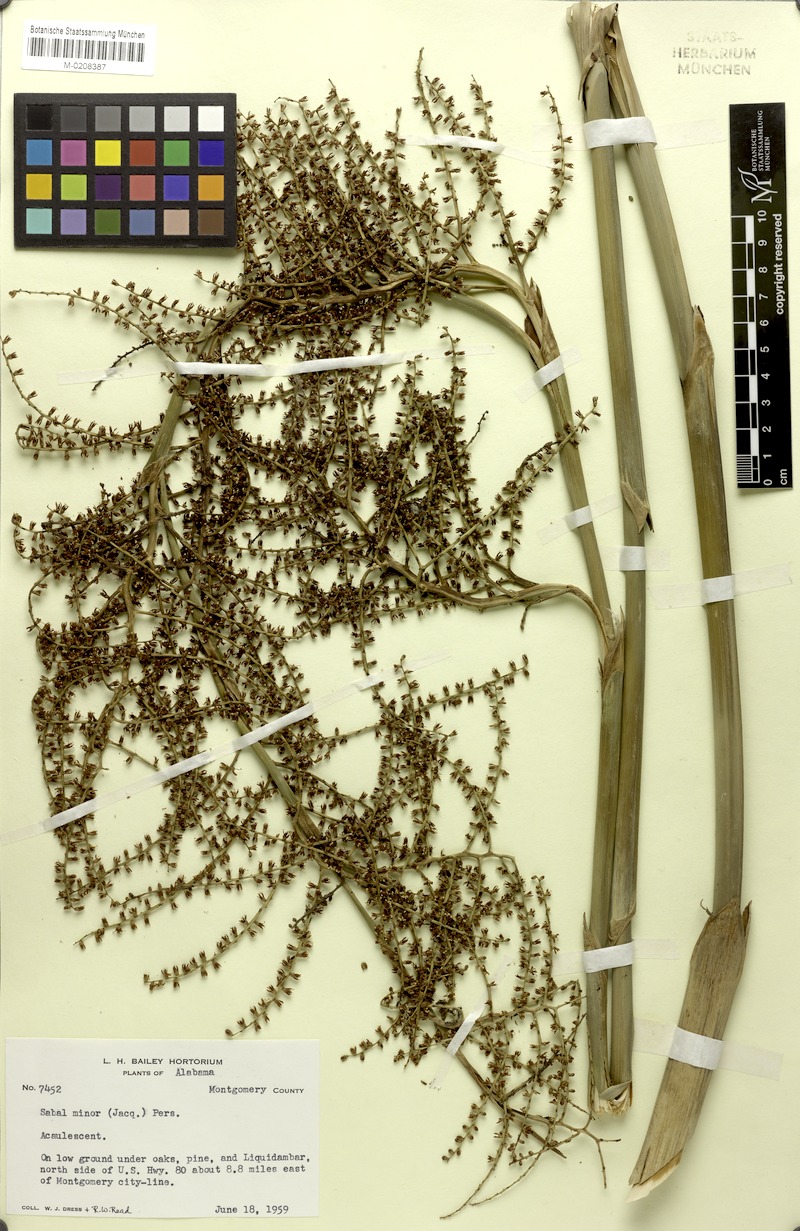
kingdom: Plantae
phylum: Tracheophyta
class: Liliopsida
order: Arecales
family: Arecaceae
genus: Sabal
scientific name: Sabal minor
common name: Dwarf palmetto
